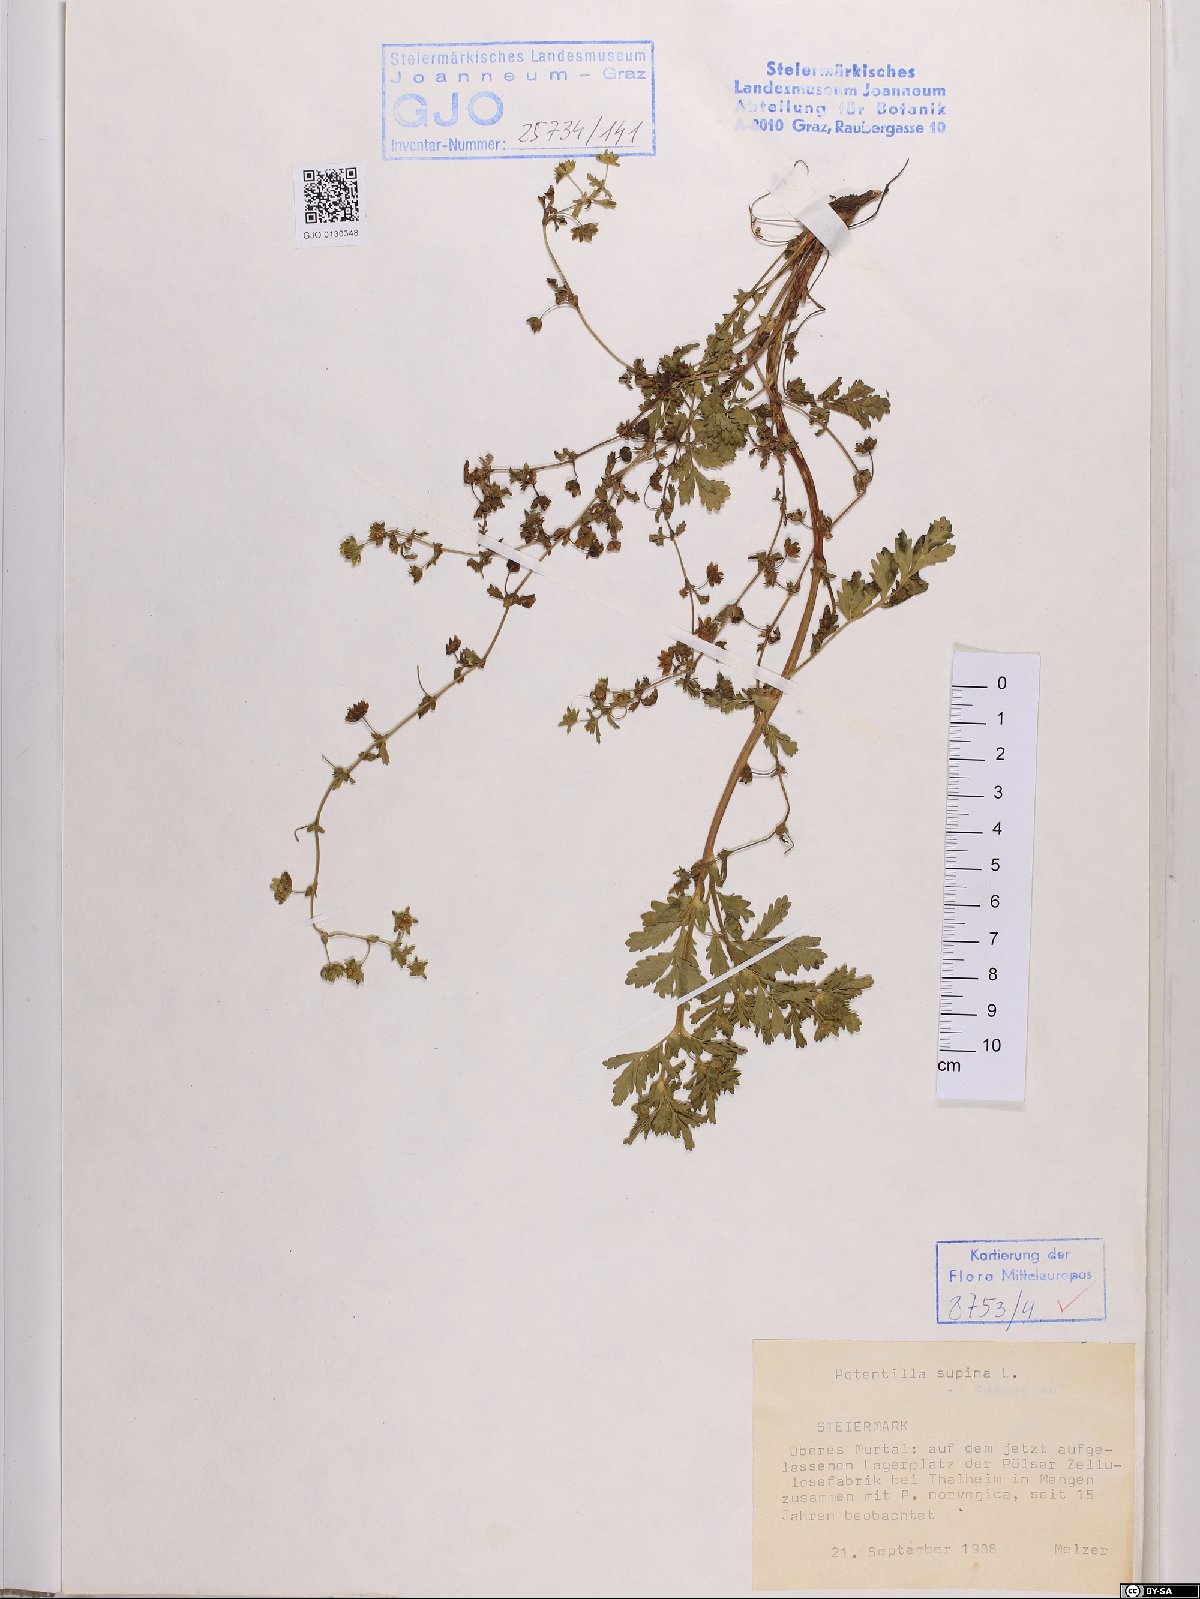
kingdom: Plantae
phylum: Tracheophyta
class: Magnoliopsida
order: Rosales
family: Rosaceae
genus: Potentilla
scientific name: Potentilla supina
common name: Prostrate cinquefoil
